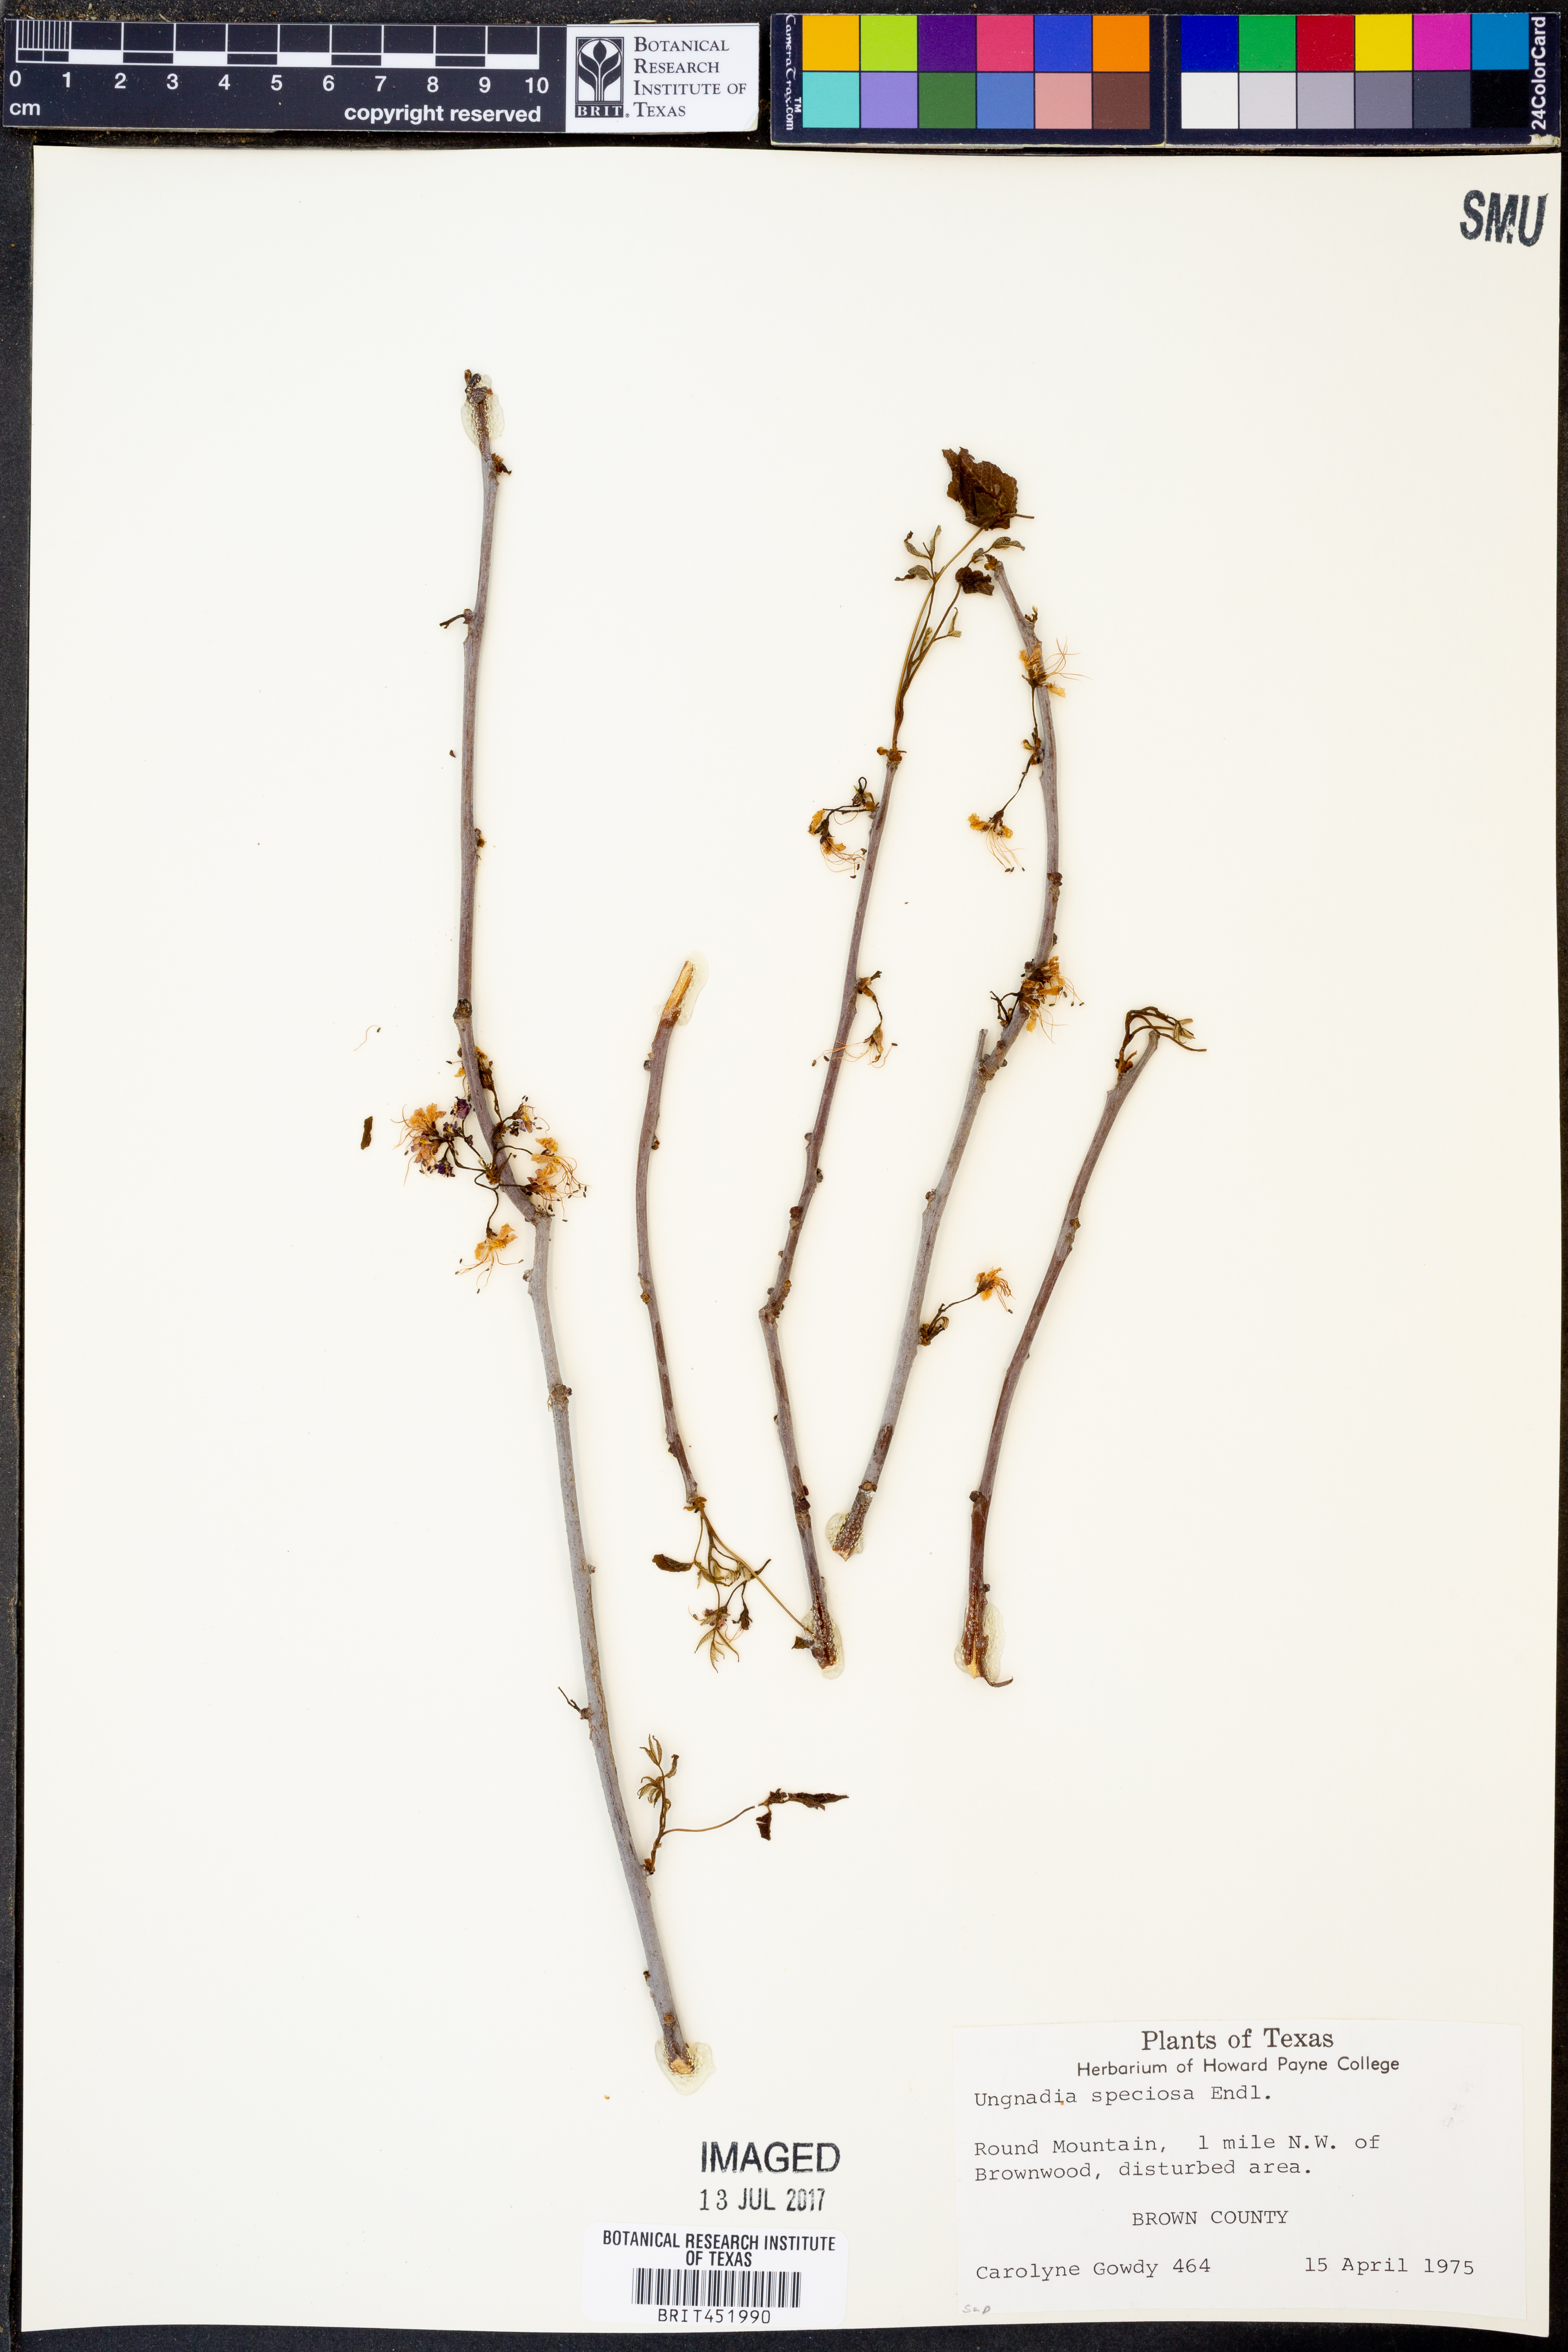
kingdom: Plantae
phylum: Tracheophyta
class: Magnoliopsida
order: Sapindales
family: Sapindaceae
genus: Ungnadia
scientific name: Ungnadia speciosa
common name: Texas-buckeye
